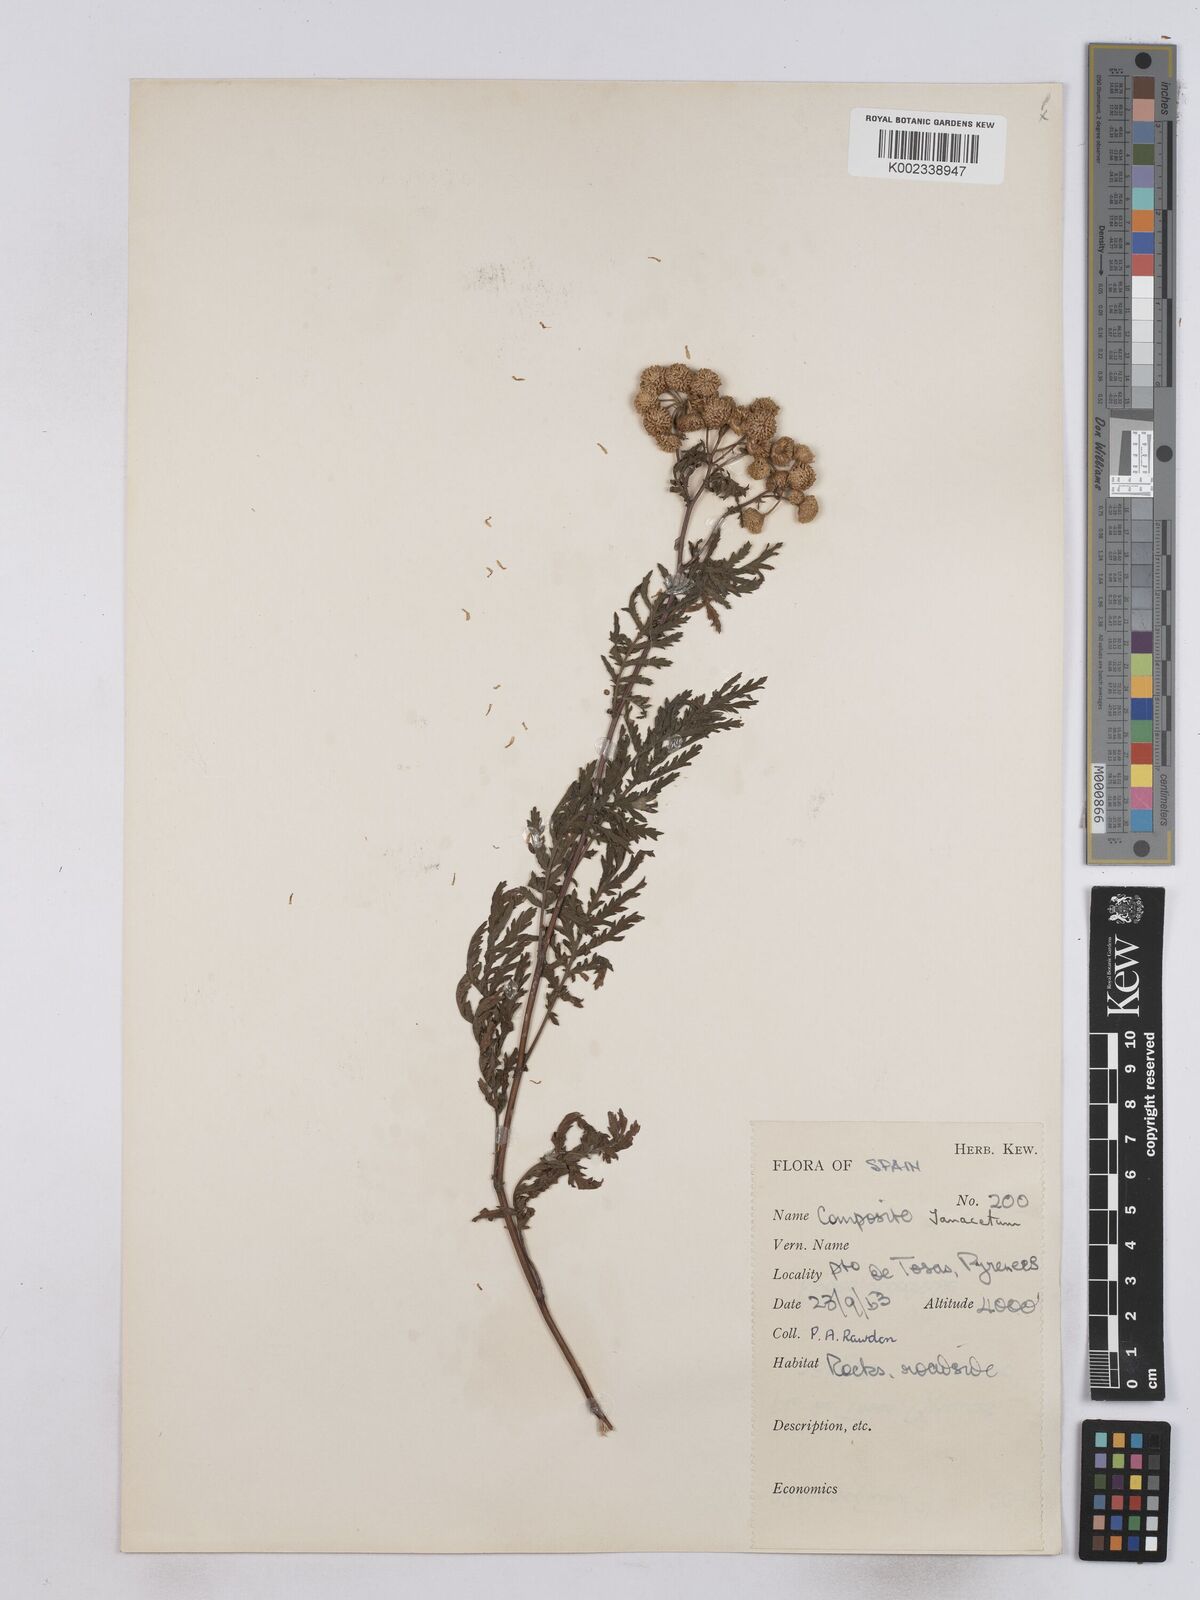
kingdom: Plantae
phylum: Tracheophyta
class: Magnoliopsida
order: Asterales
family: Asteraceae
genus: Tanacetum
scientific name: Tanacetum
